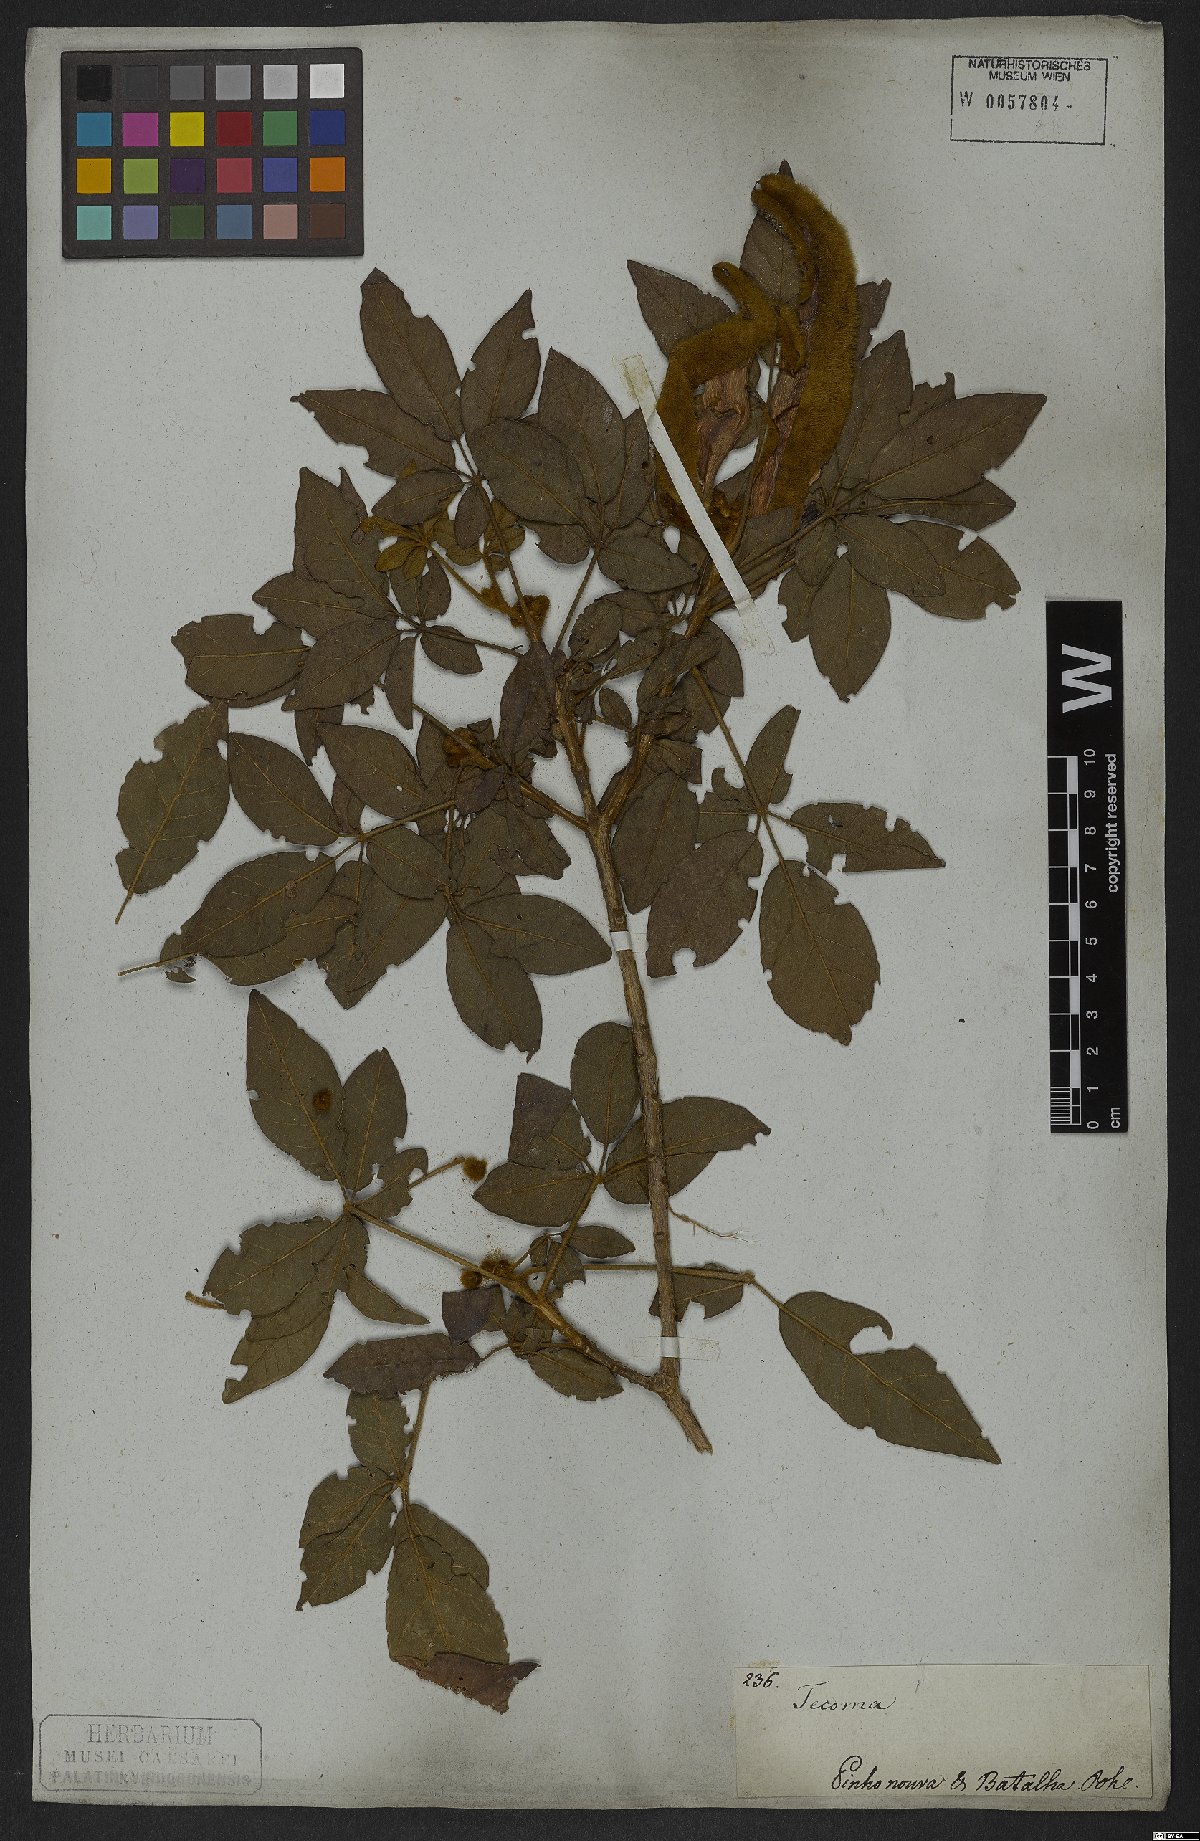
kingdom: Plantae
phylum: Tracheophyta
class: Magnoliopsida
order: Lamiales
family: Bignoniaceae
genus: Handroanthus
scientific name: Handroanthus chrysotrichus
